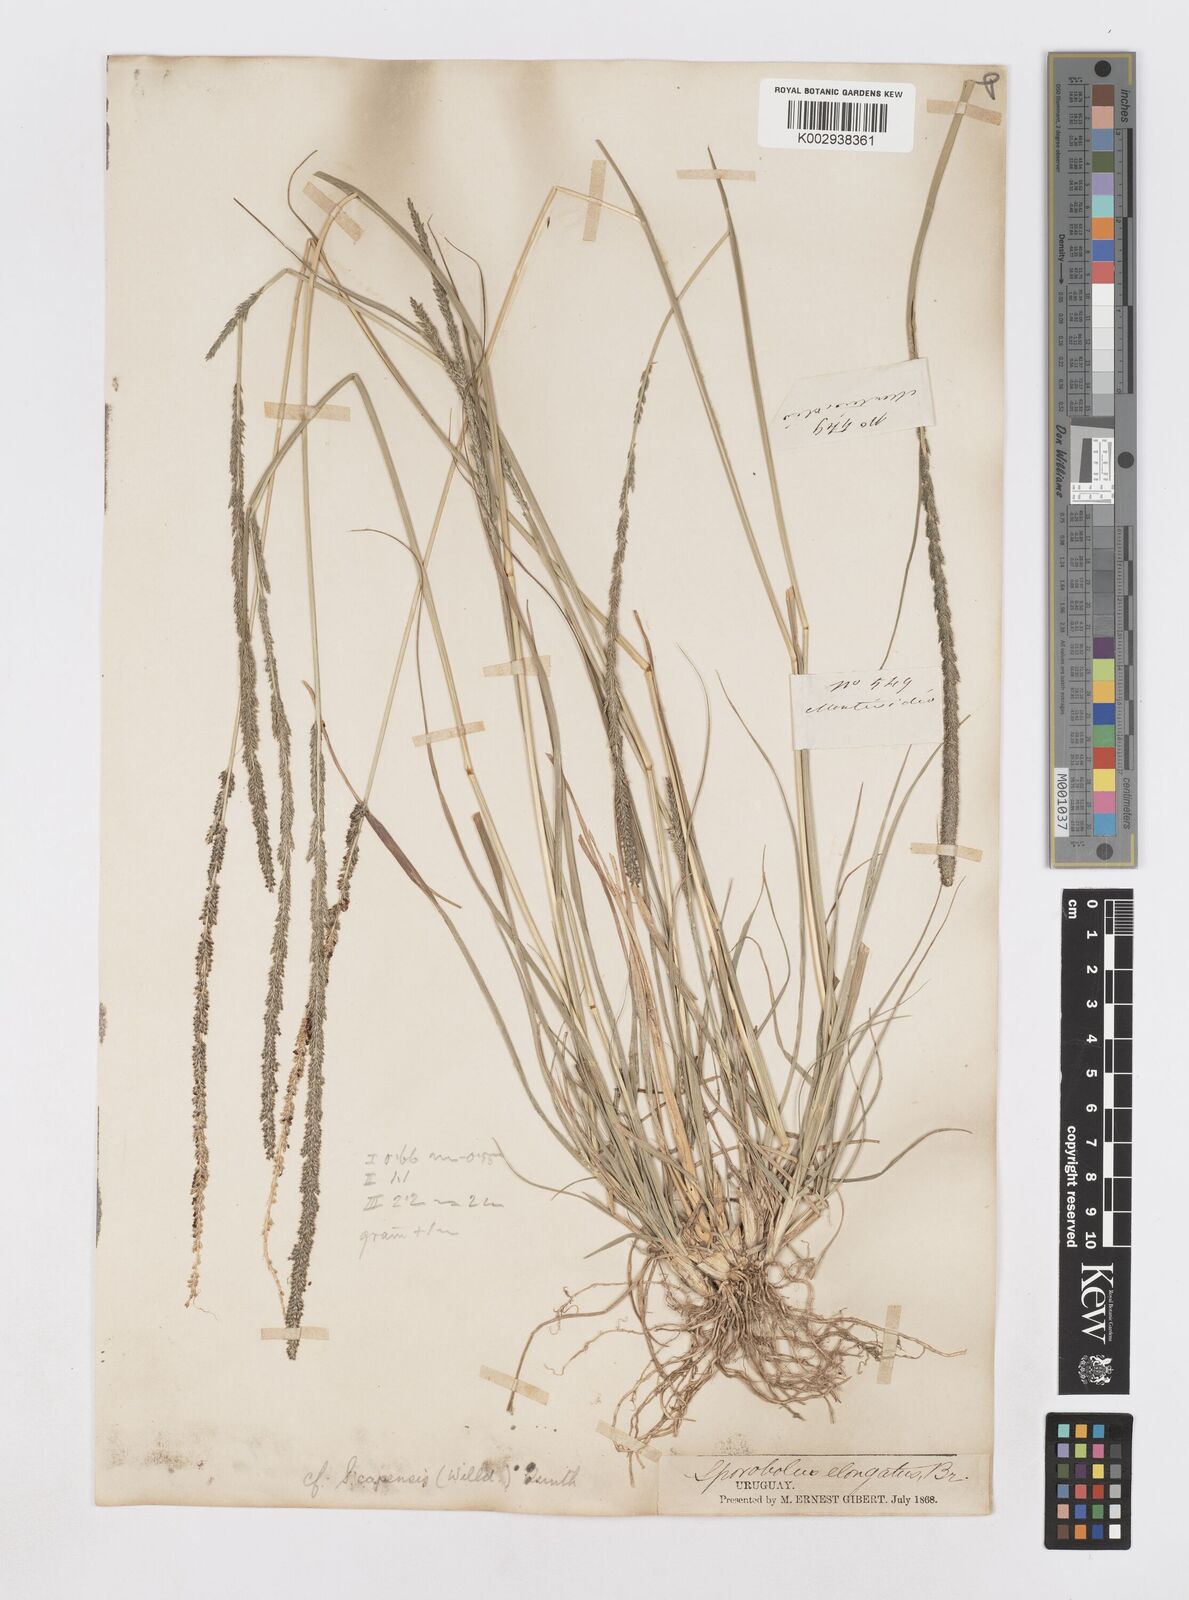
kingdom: Plantae
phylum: Tracheophyta
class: Liliopsida
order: Poales
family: Poaceae
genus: Sporobolus
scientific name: Sporobolus pyramidalis
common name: West indian dropseed
